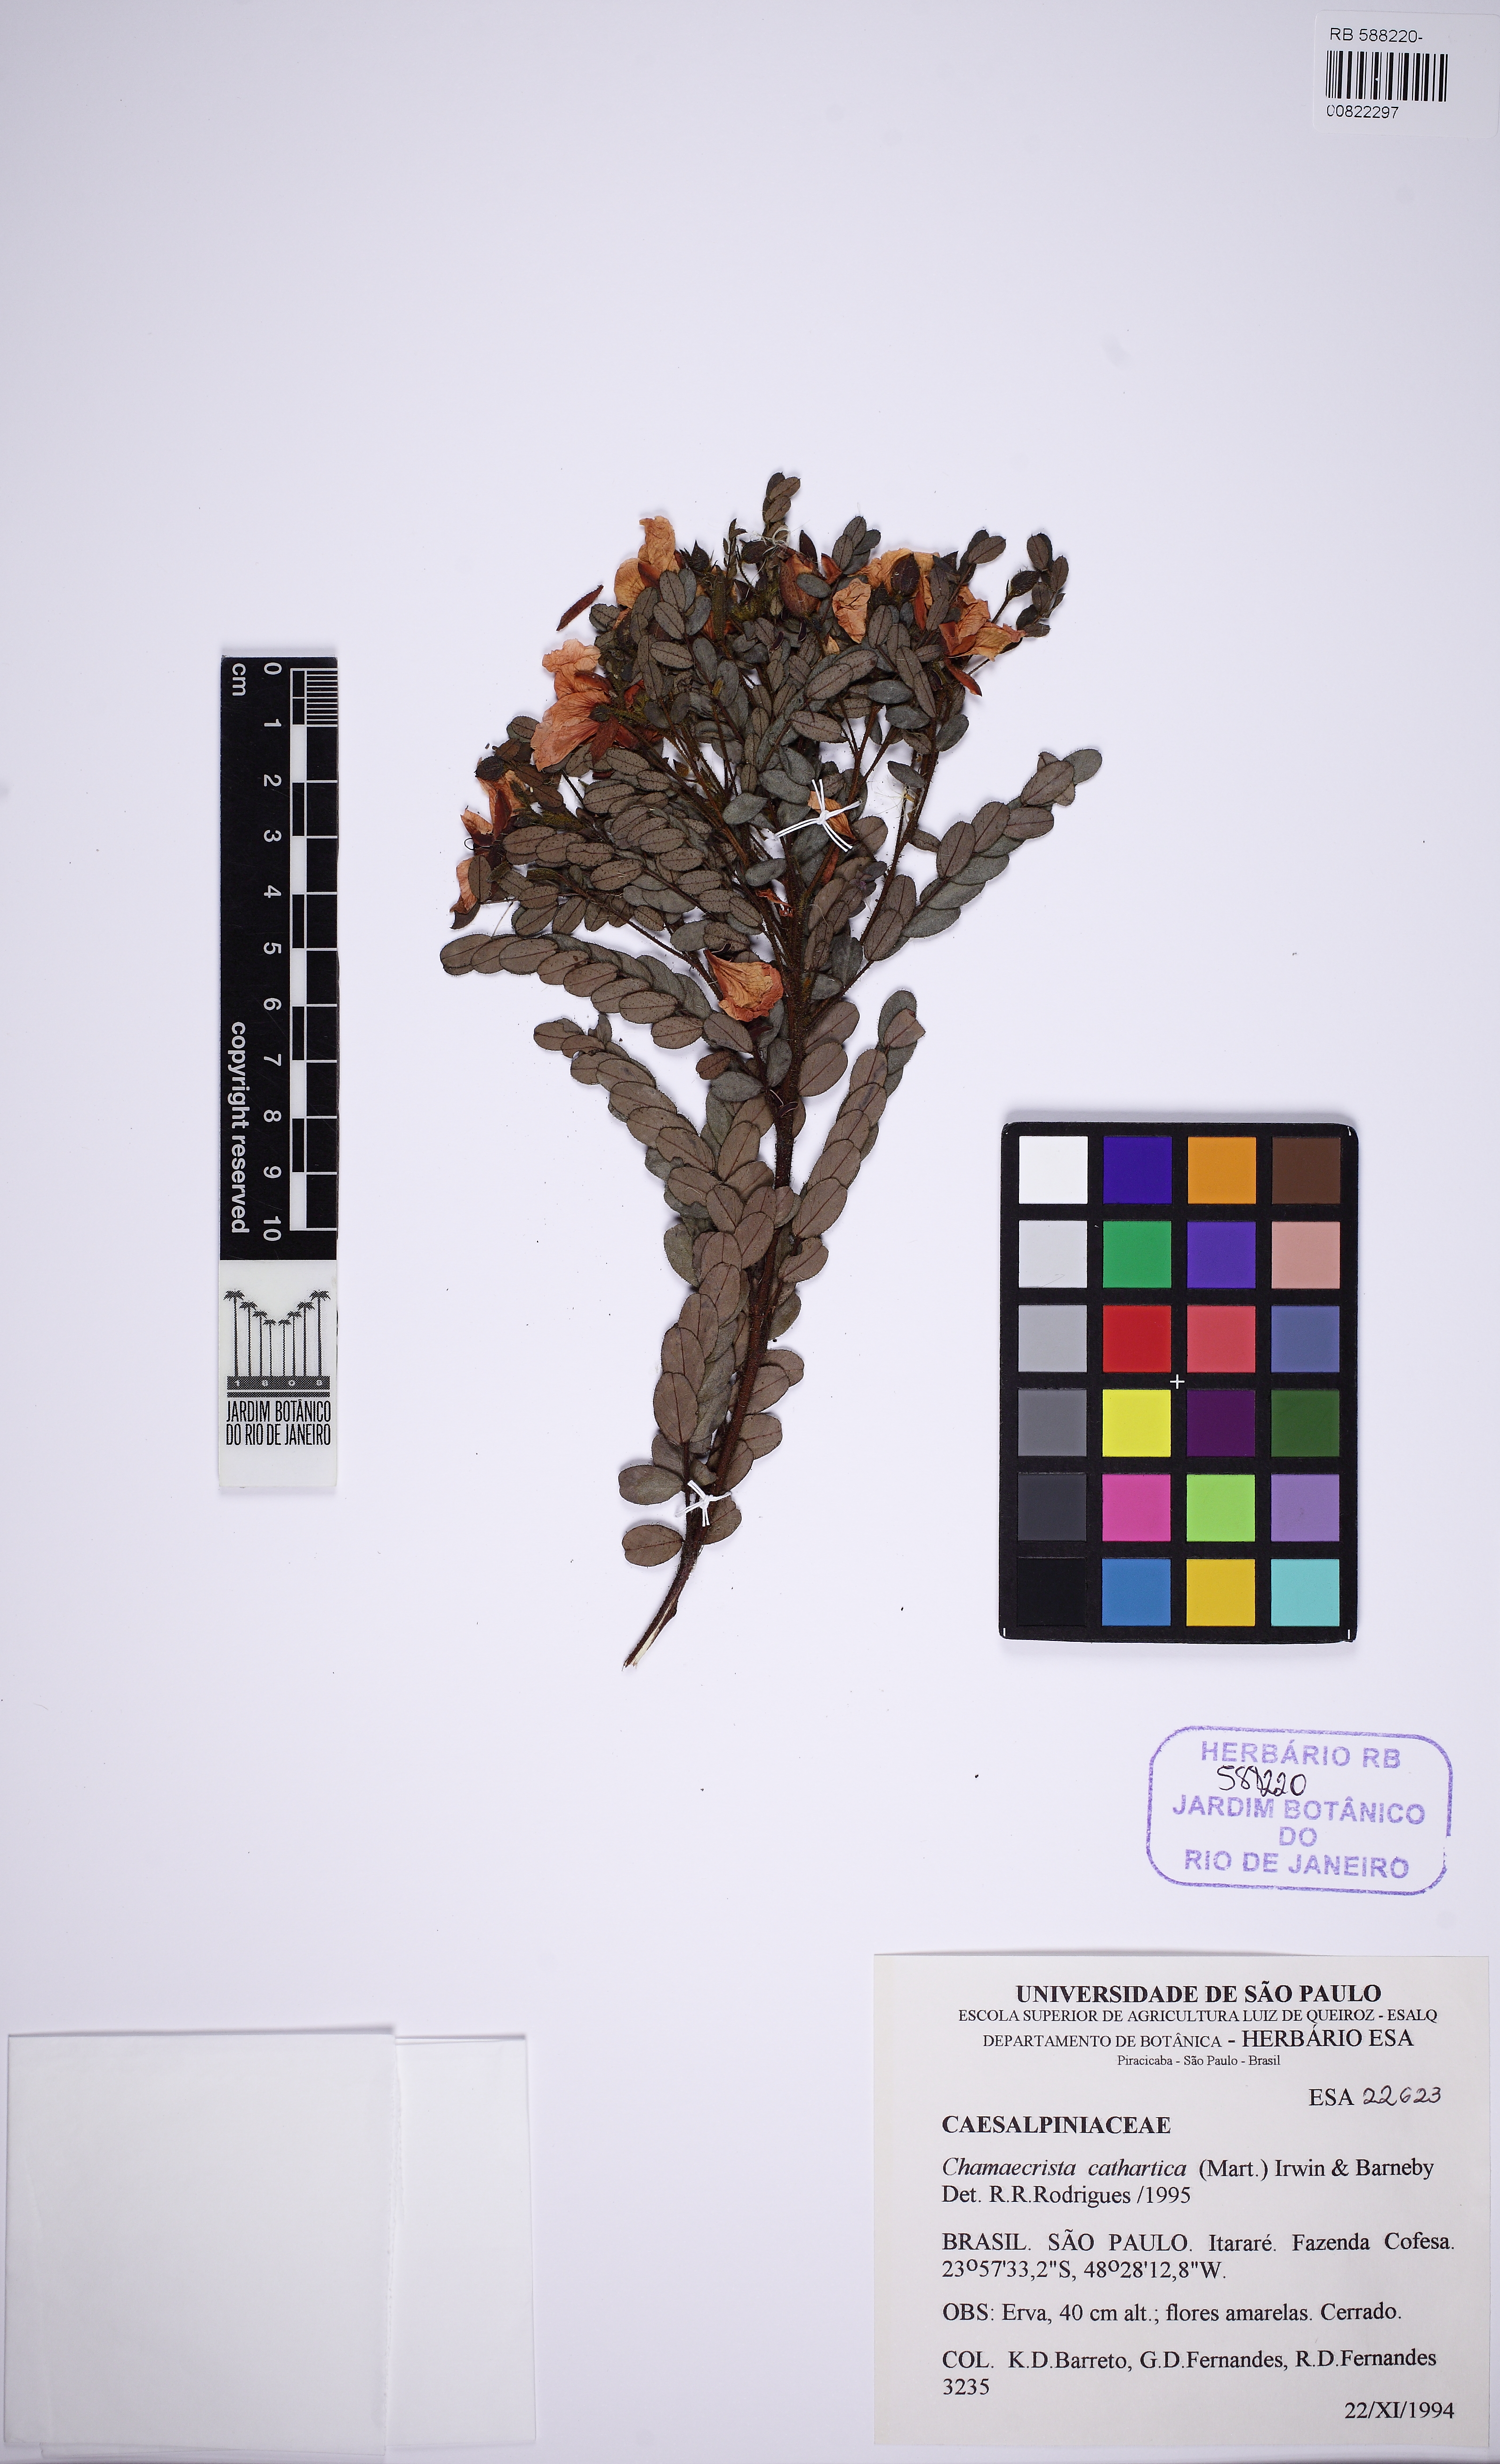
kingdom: Plantae
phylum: Tracheophyta
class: Magnoliopsida
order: Fabales
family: Fabaceae
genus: Chamaecrista
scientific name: Chamaecrista cathartica
